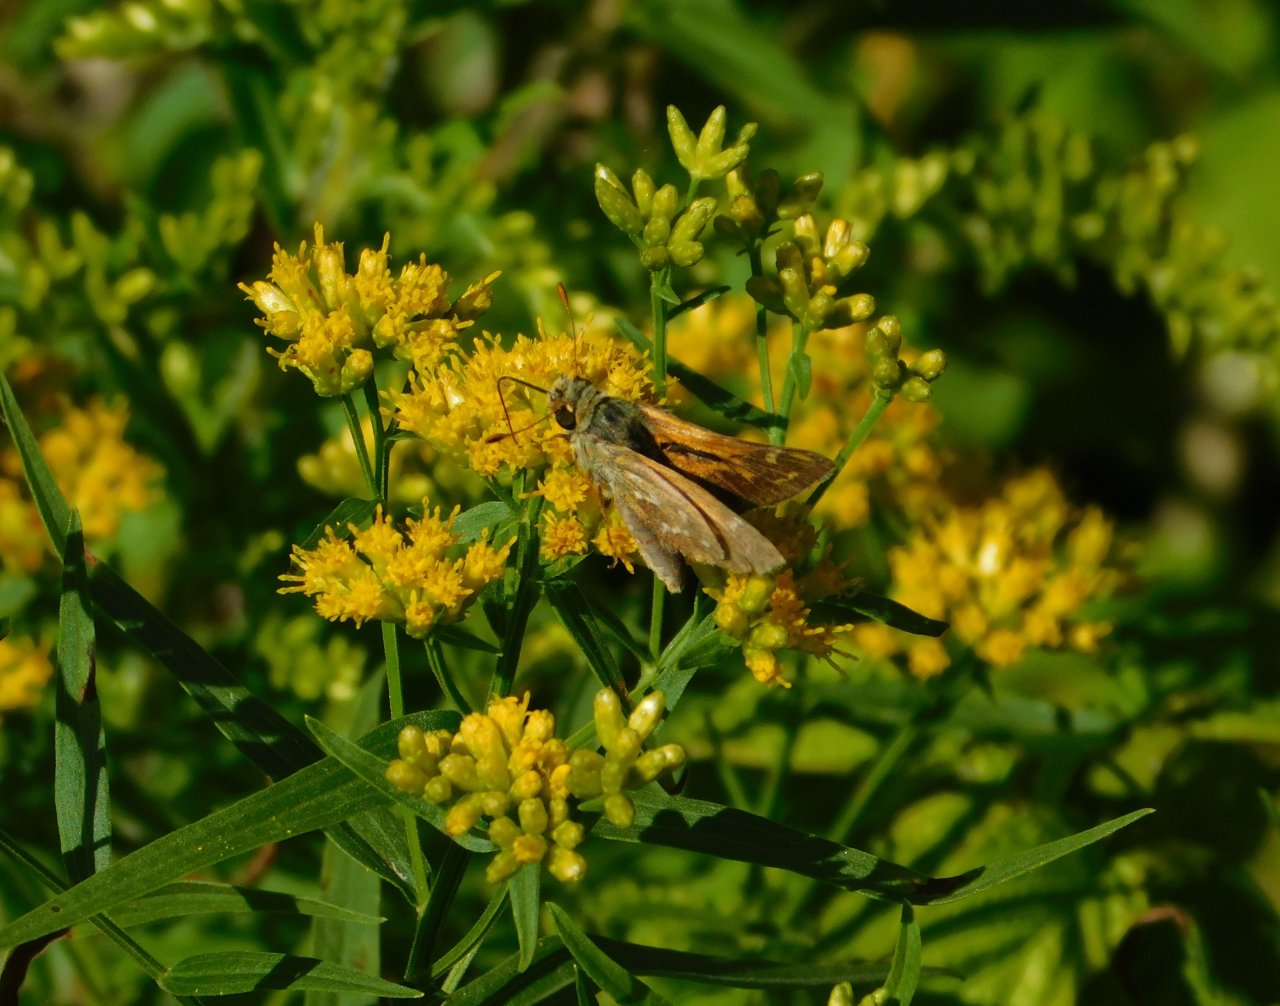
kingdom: Animalia
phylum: Arthropoda
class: Insecta
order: Lepidoptera
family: Hesperiidae
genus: Hesperia
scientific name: Hesperia comma
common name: Common Branded Skipper
